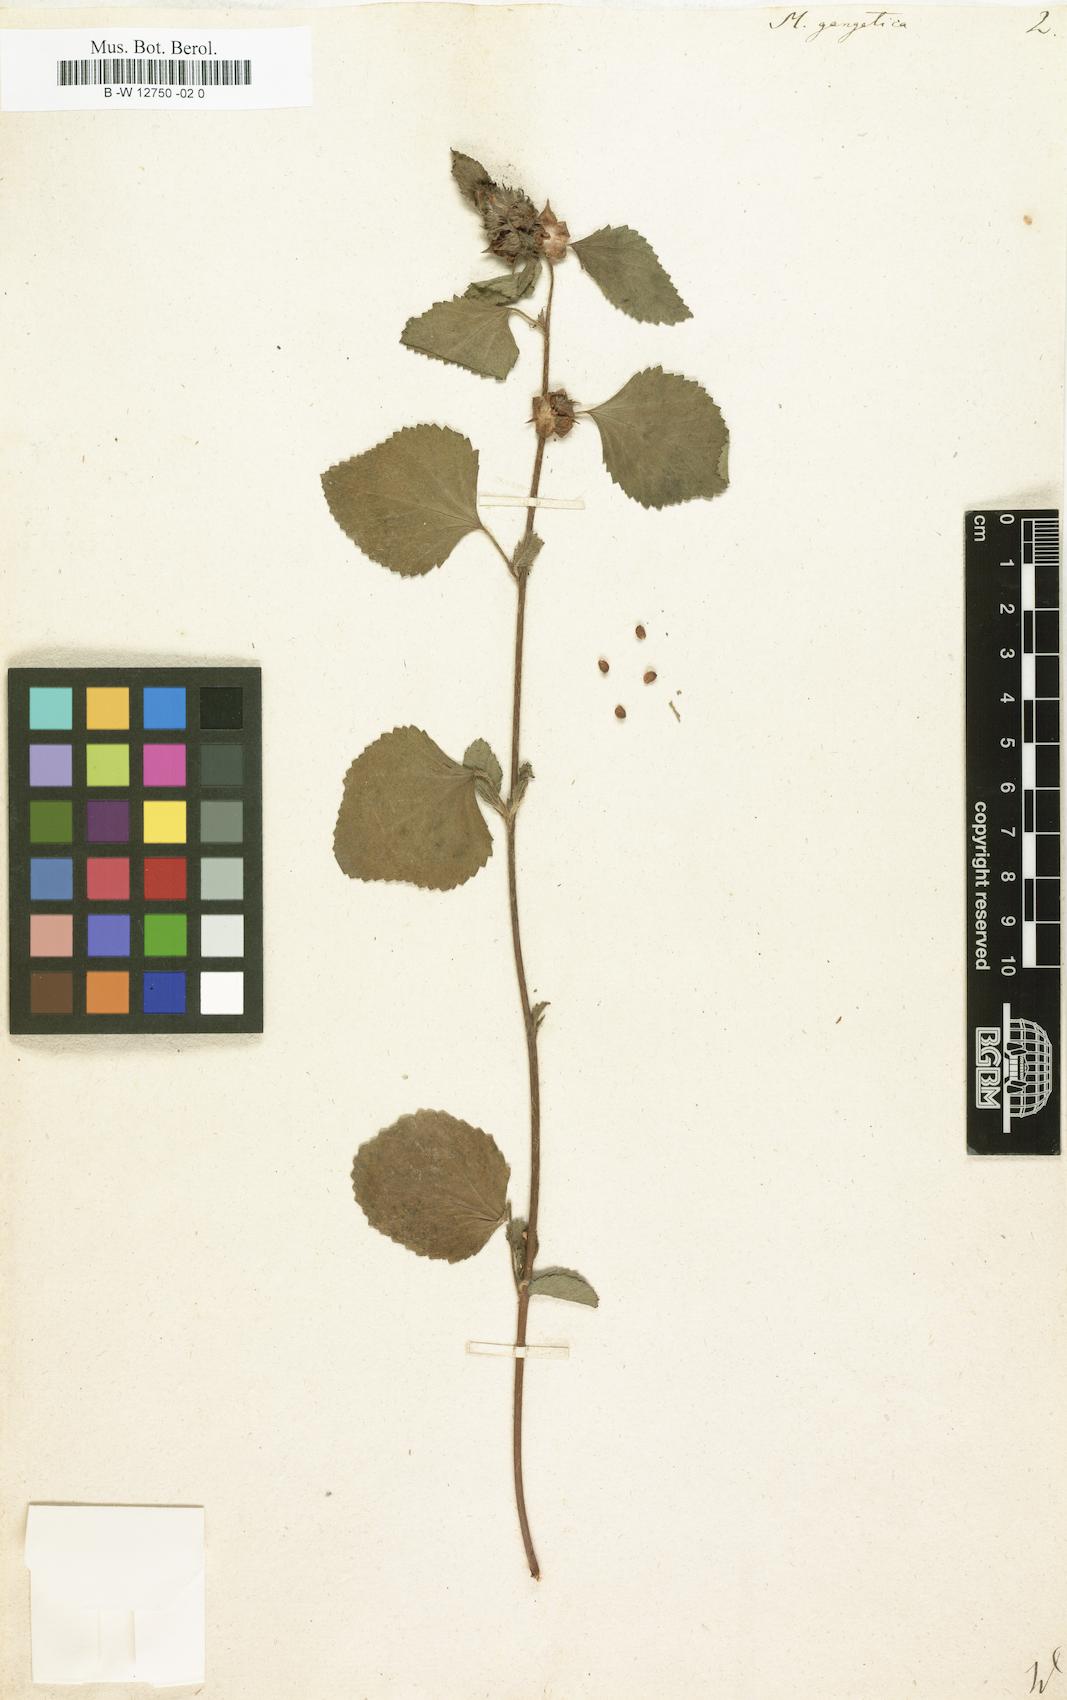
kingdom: Plantae
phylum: Tracheophyta
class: Magnoliopsida
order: Malvales
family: Malvaceae
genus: Malvastrum
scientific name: Malvastrum americanum
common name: Spiked malvastrum
